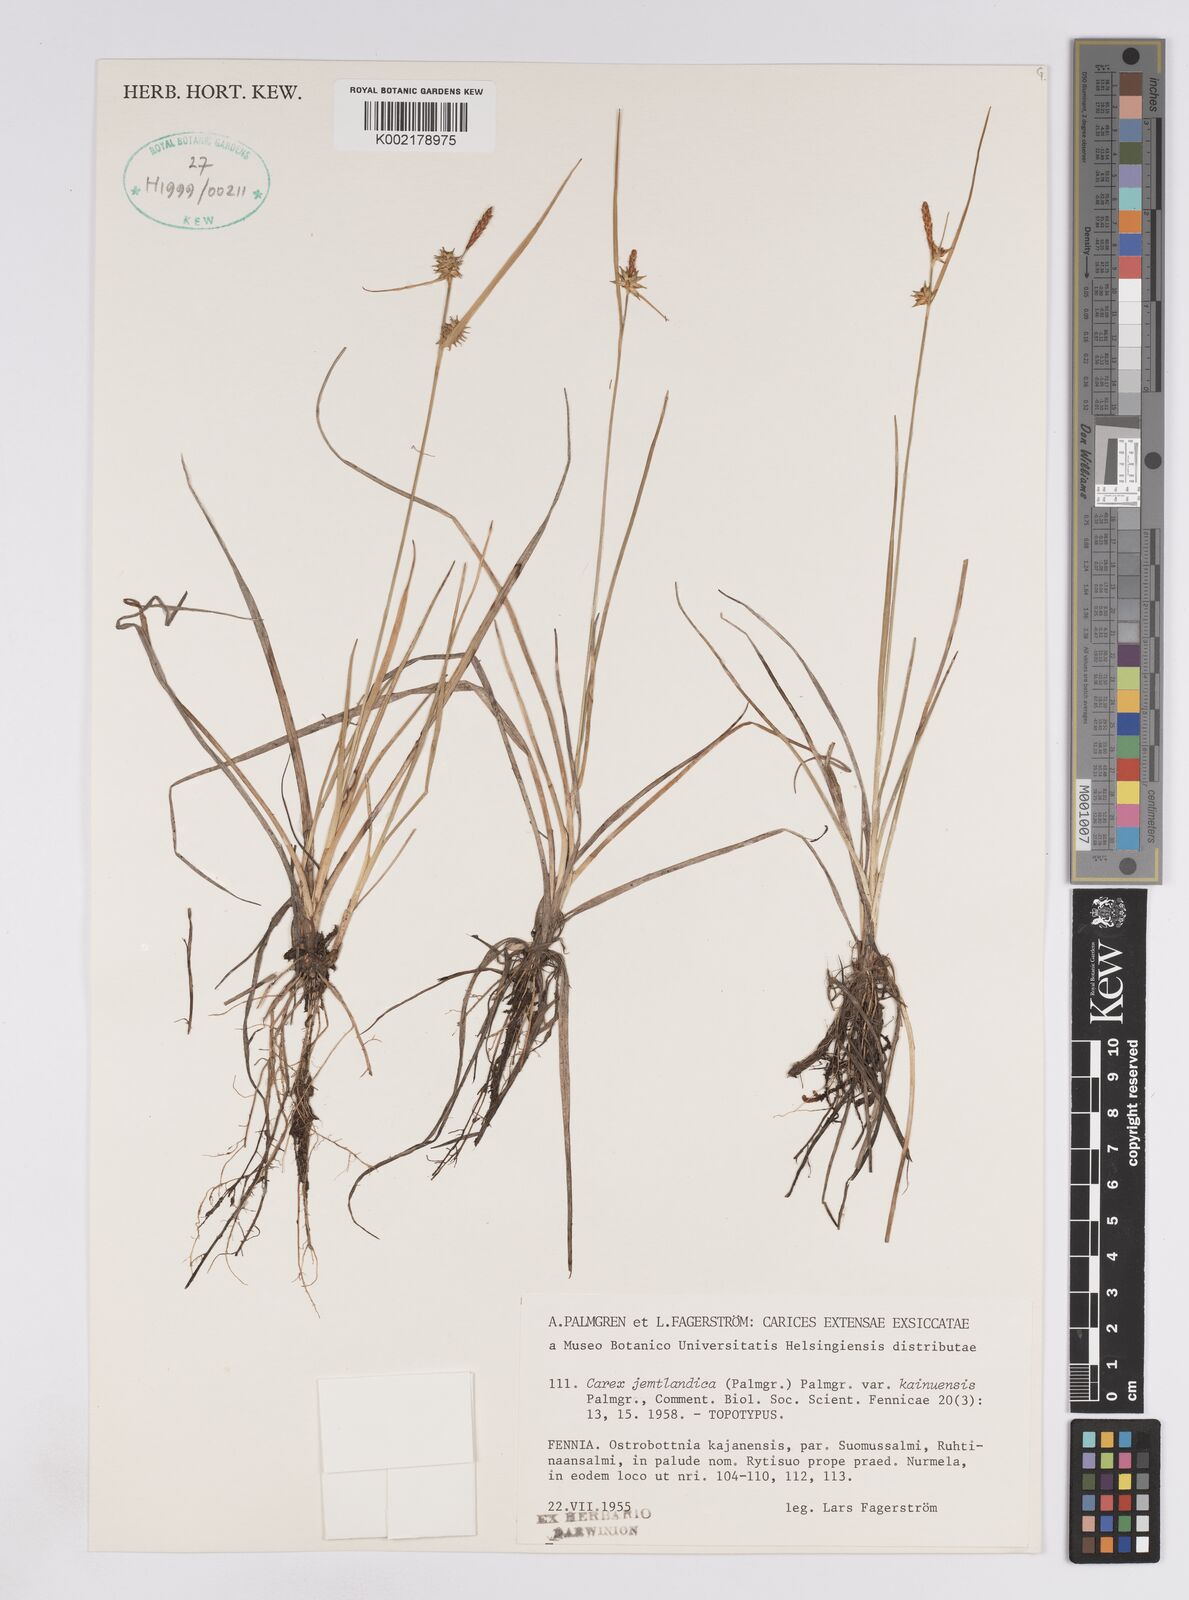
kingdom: Plantae
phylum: Tracheophyta
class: Liliopsida
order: Poales
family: Cyperaceae
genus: Carex
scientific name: Carex lepidocarpa
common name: Long-stalked yellow-sedge
